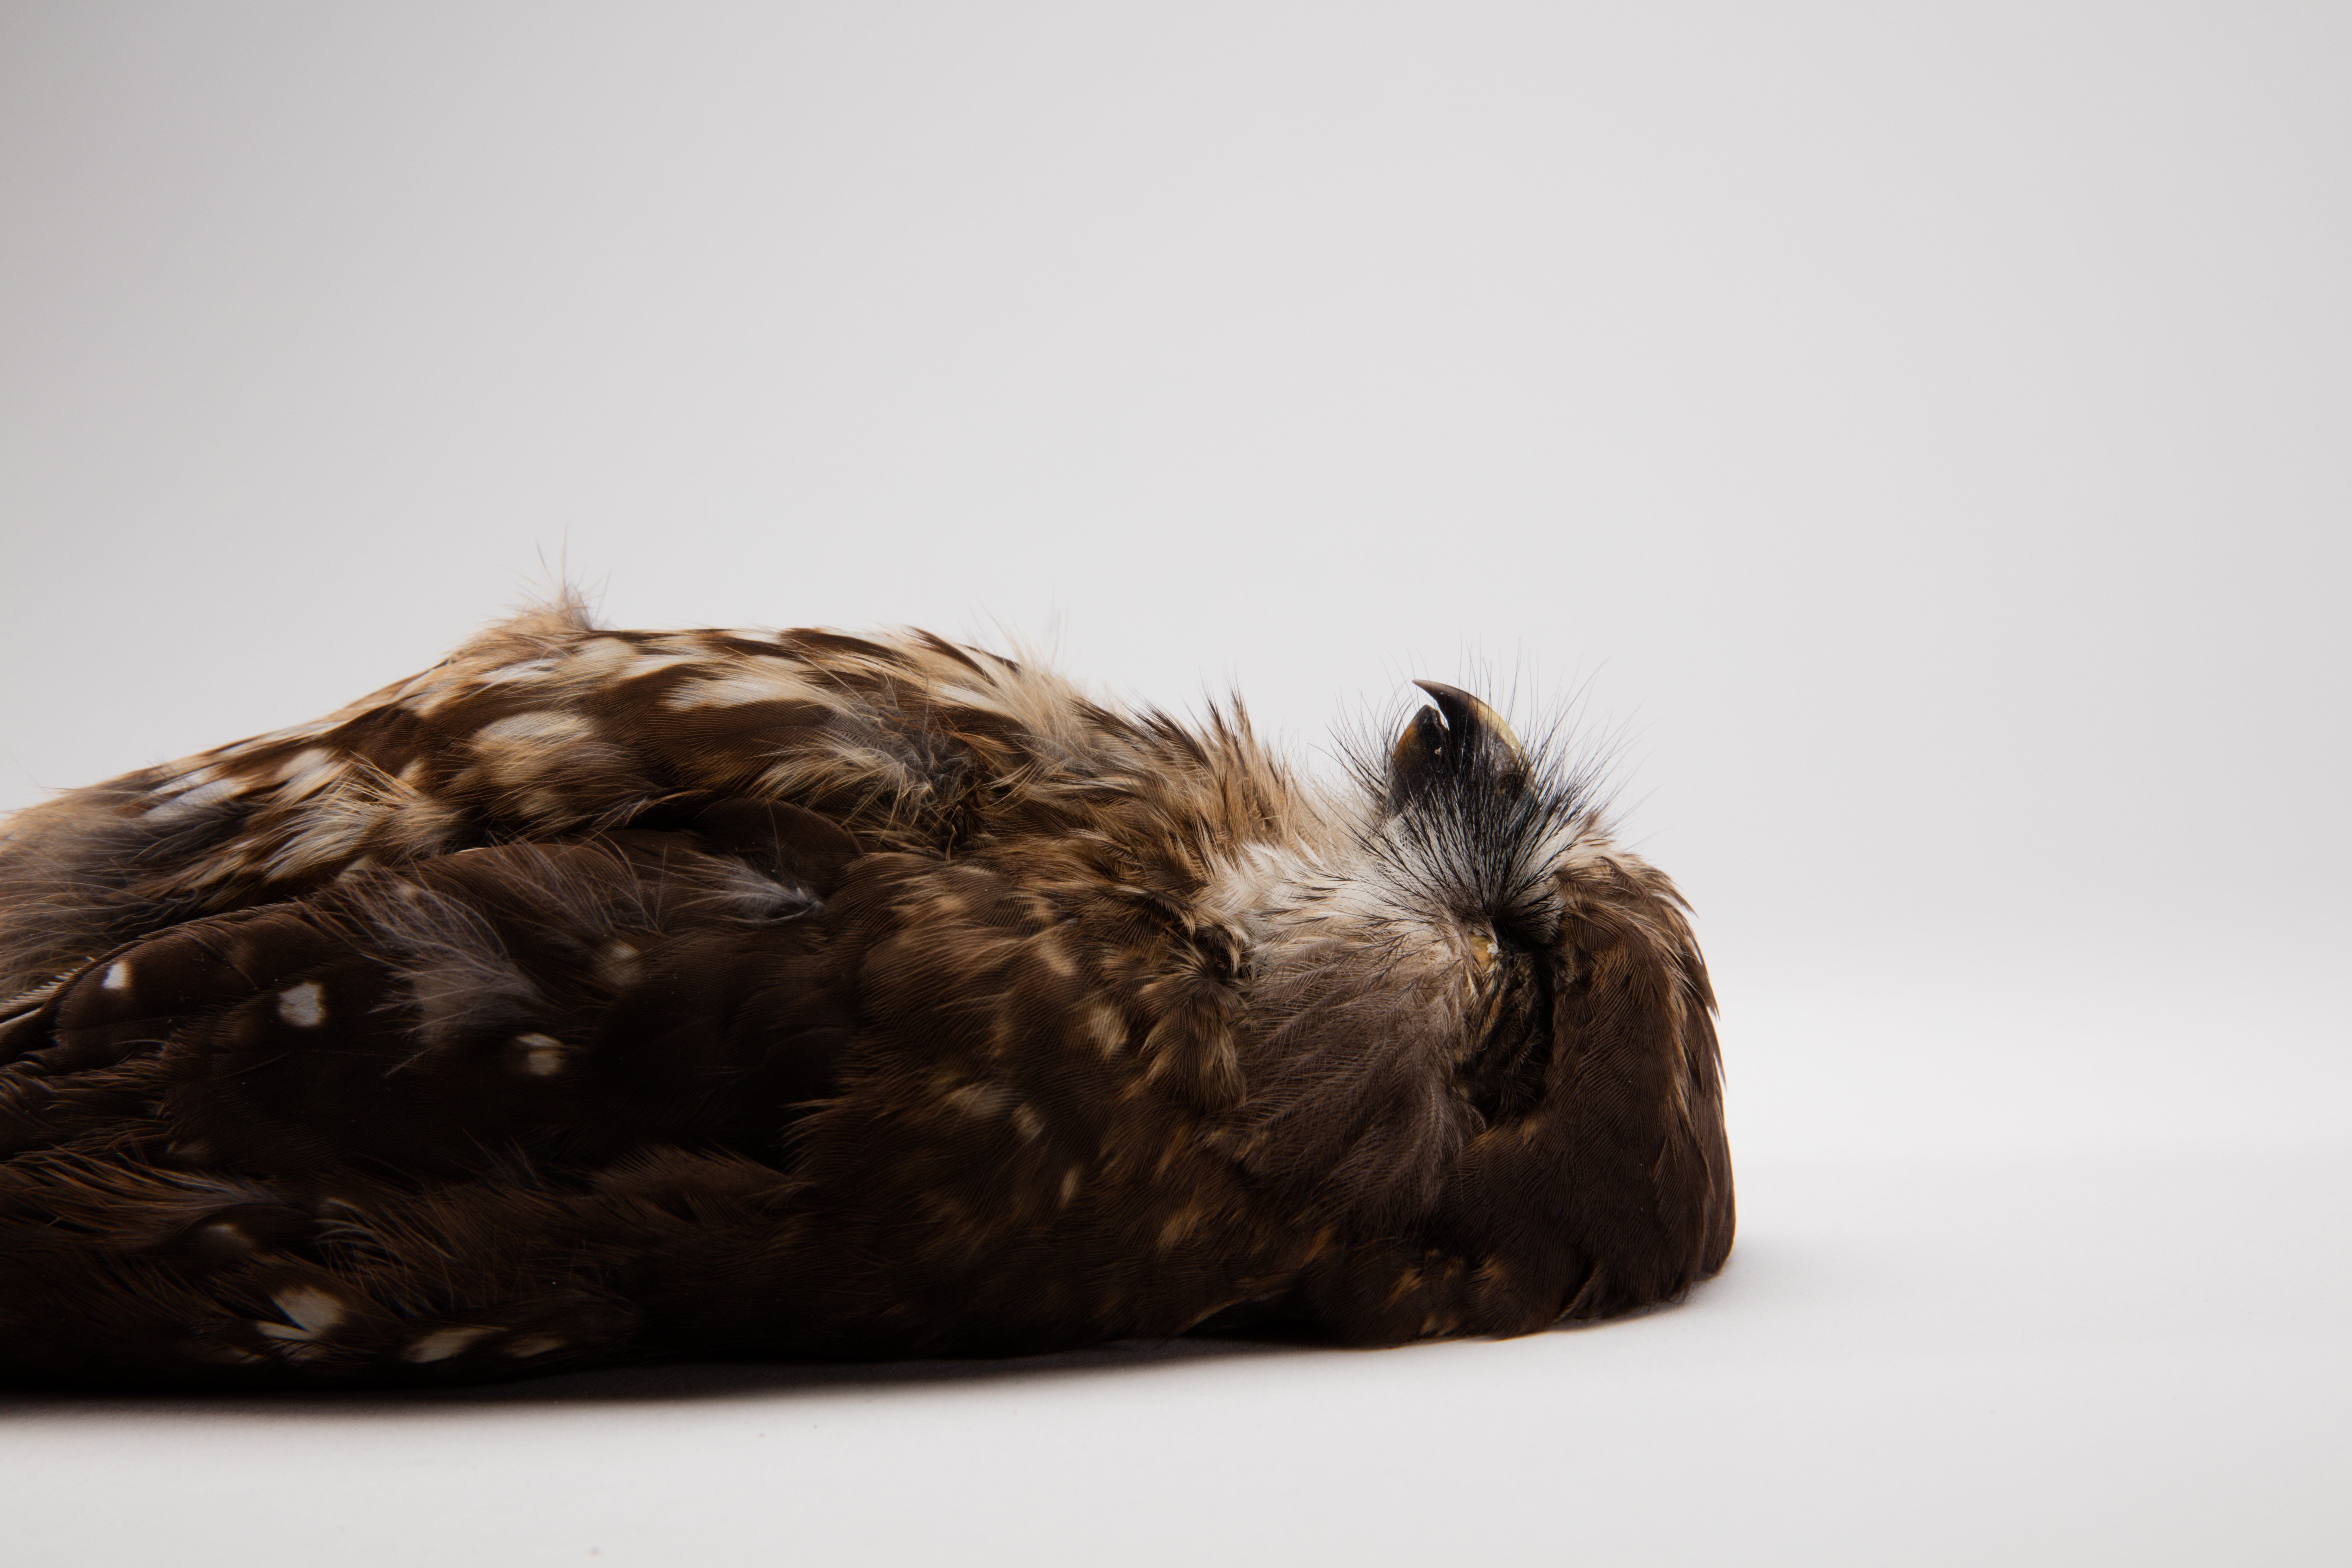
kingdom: Animalia
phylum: Chordata
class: Aves
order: Strigiformes
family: Strigidae
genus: Ninox
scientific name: Ninox novaeseelandiae
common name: Morepork
